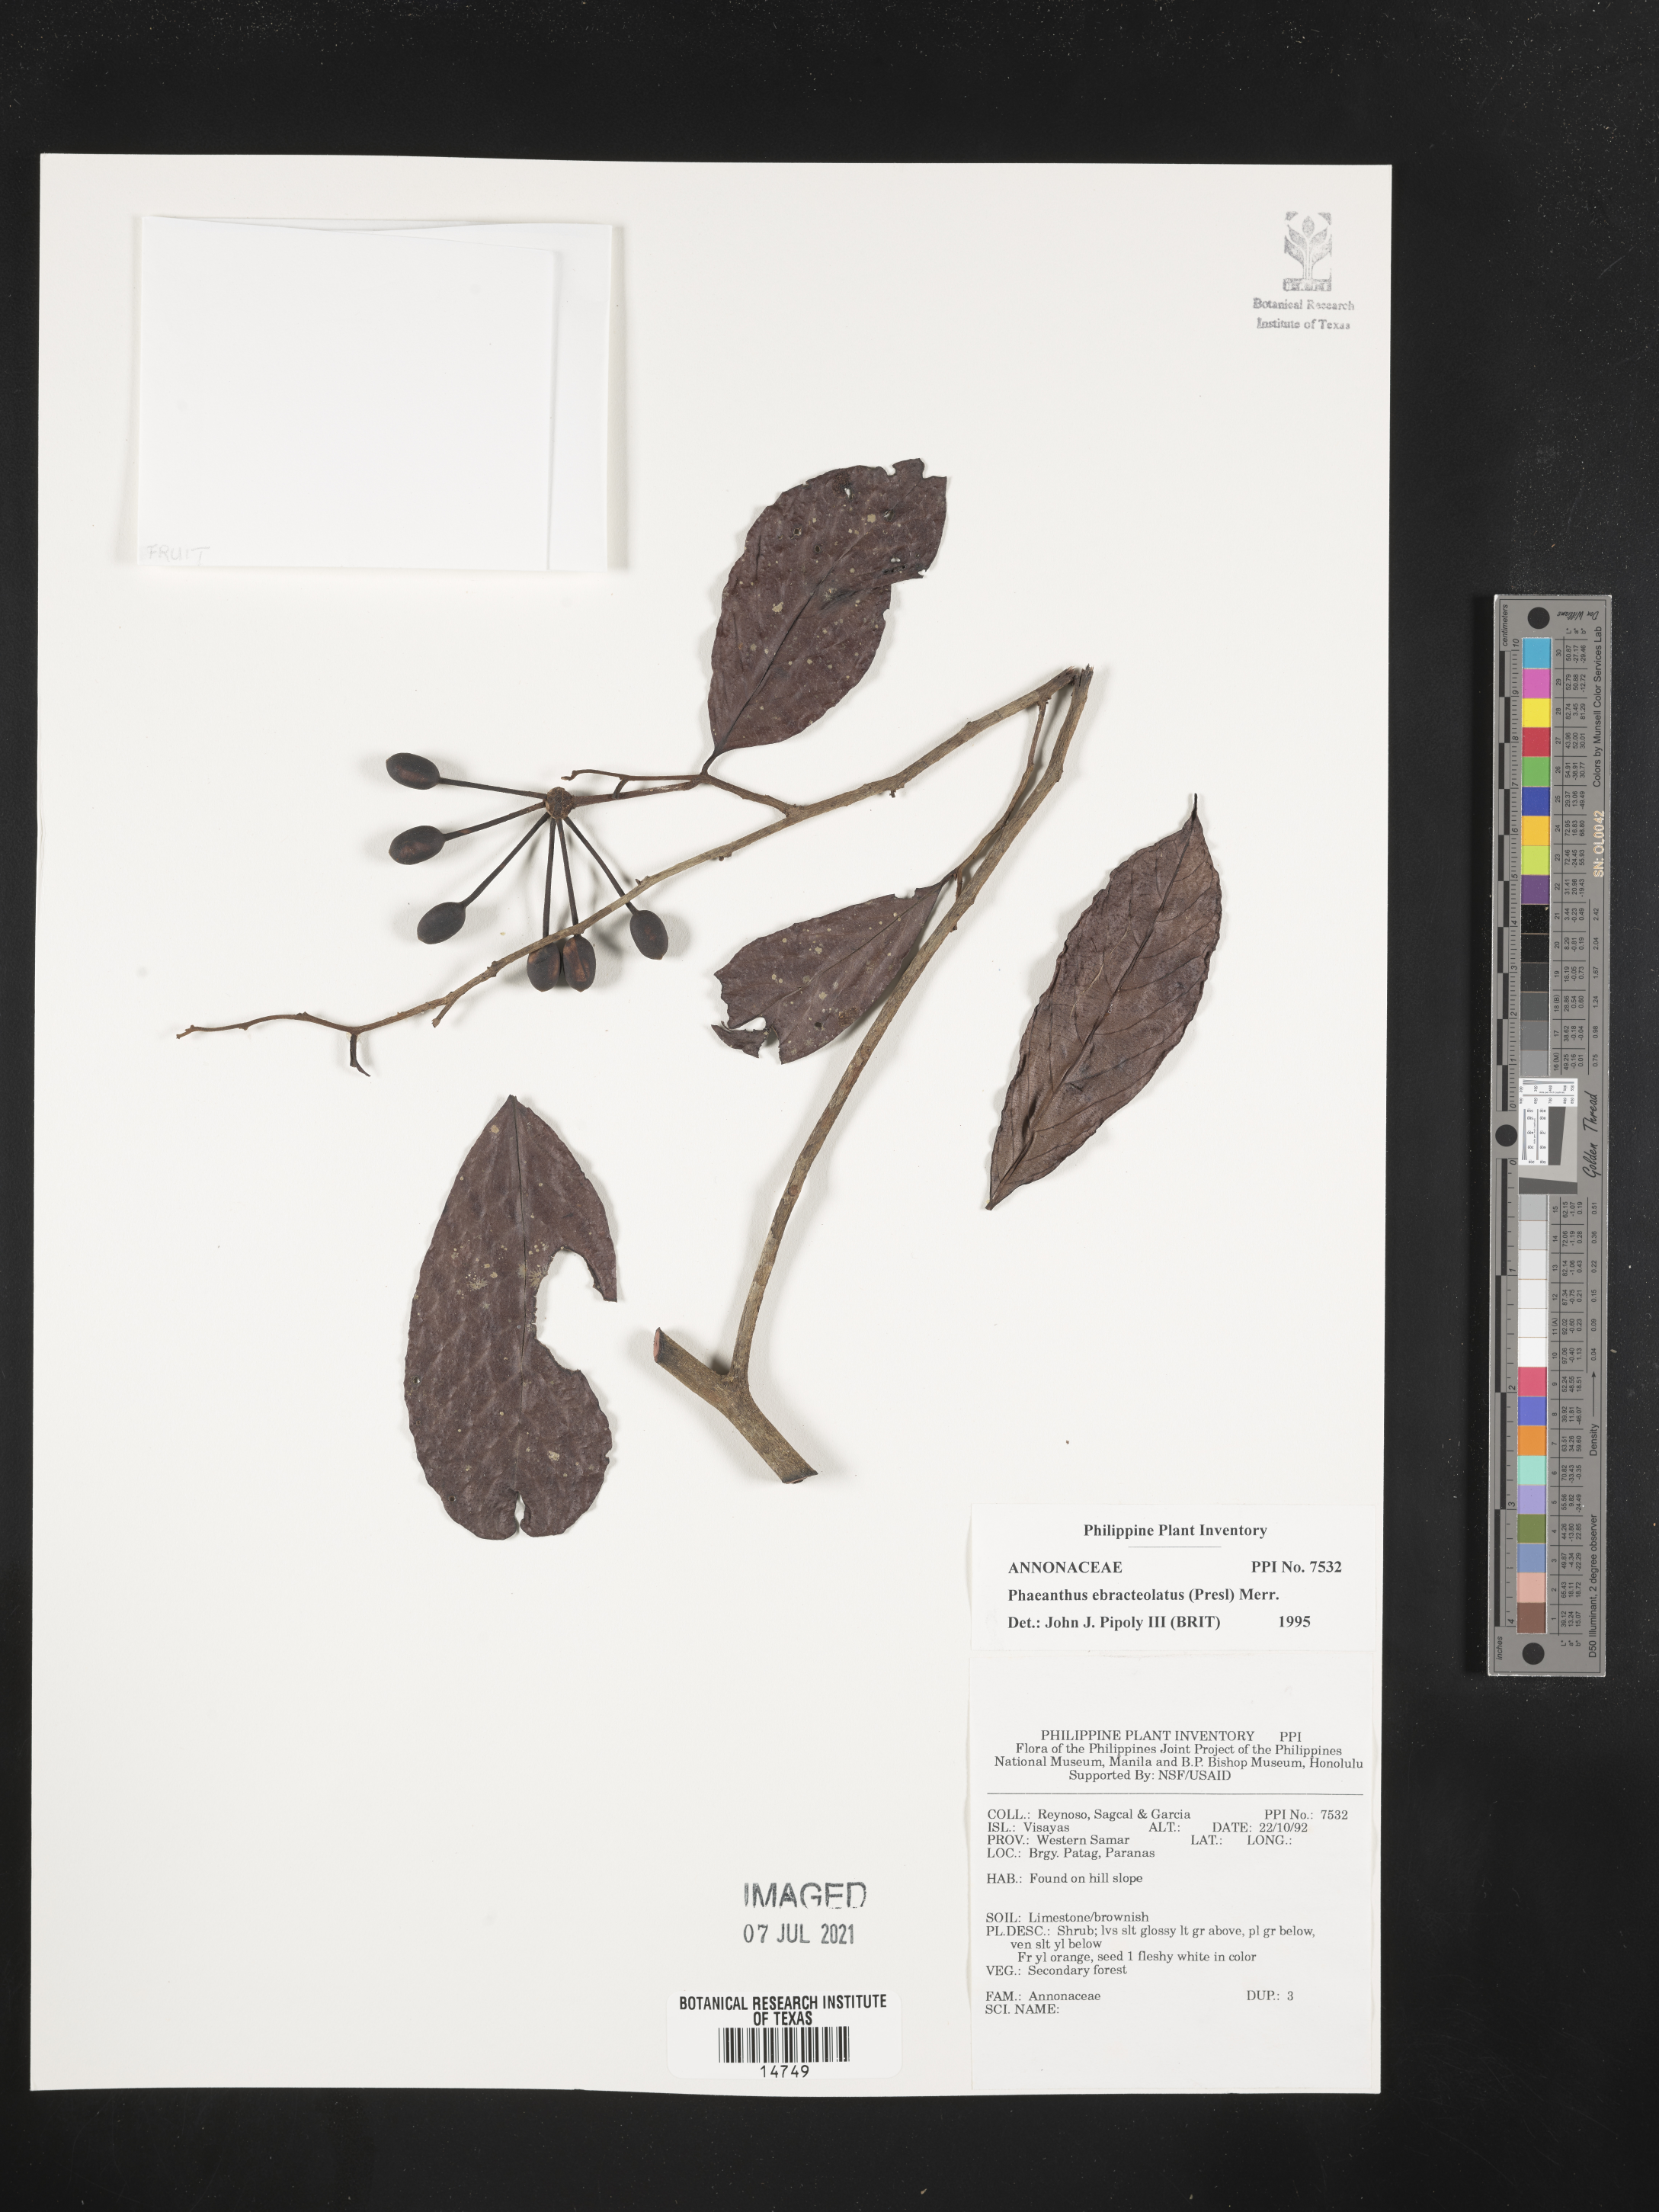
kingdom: Plantae
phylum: Tracheophyta
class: Magnoliopsida
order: Magnoliales
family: Annonaceae
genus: Phaeanthus
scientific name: Phaeanthus ophthalmicus
